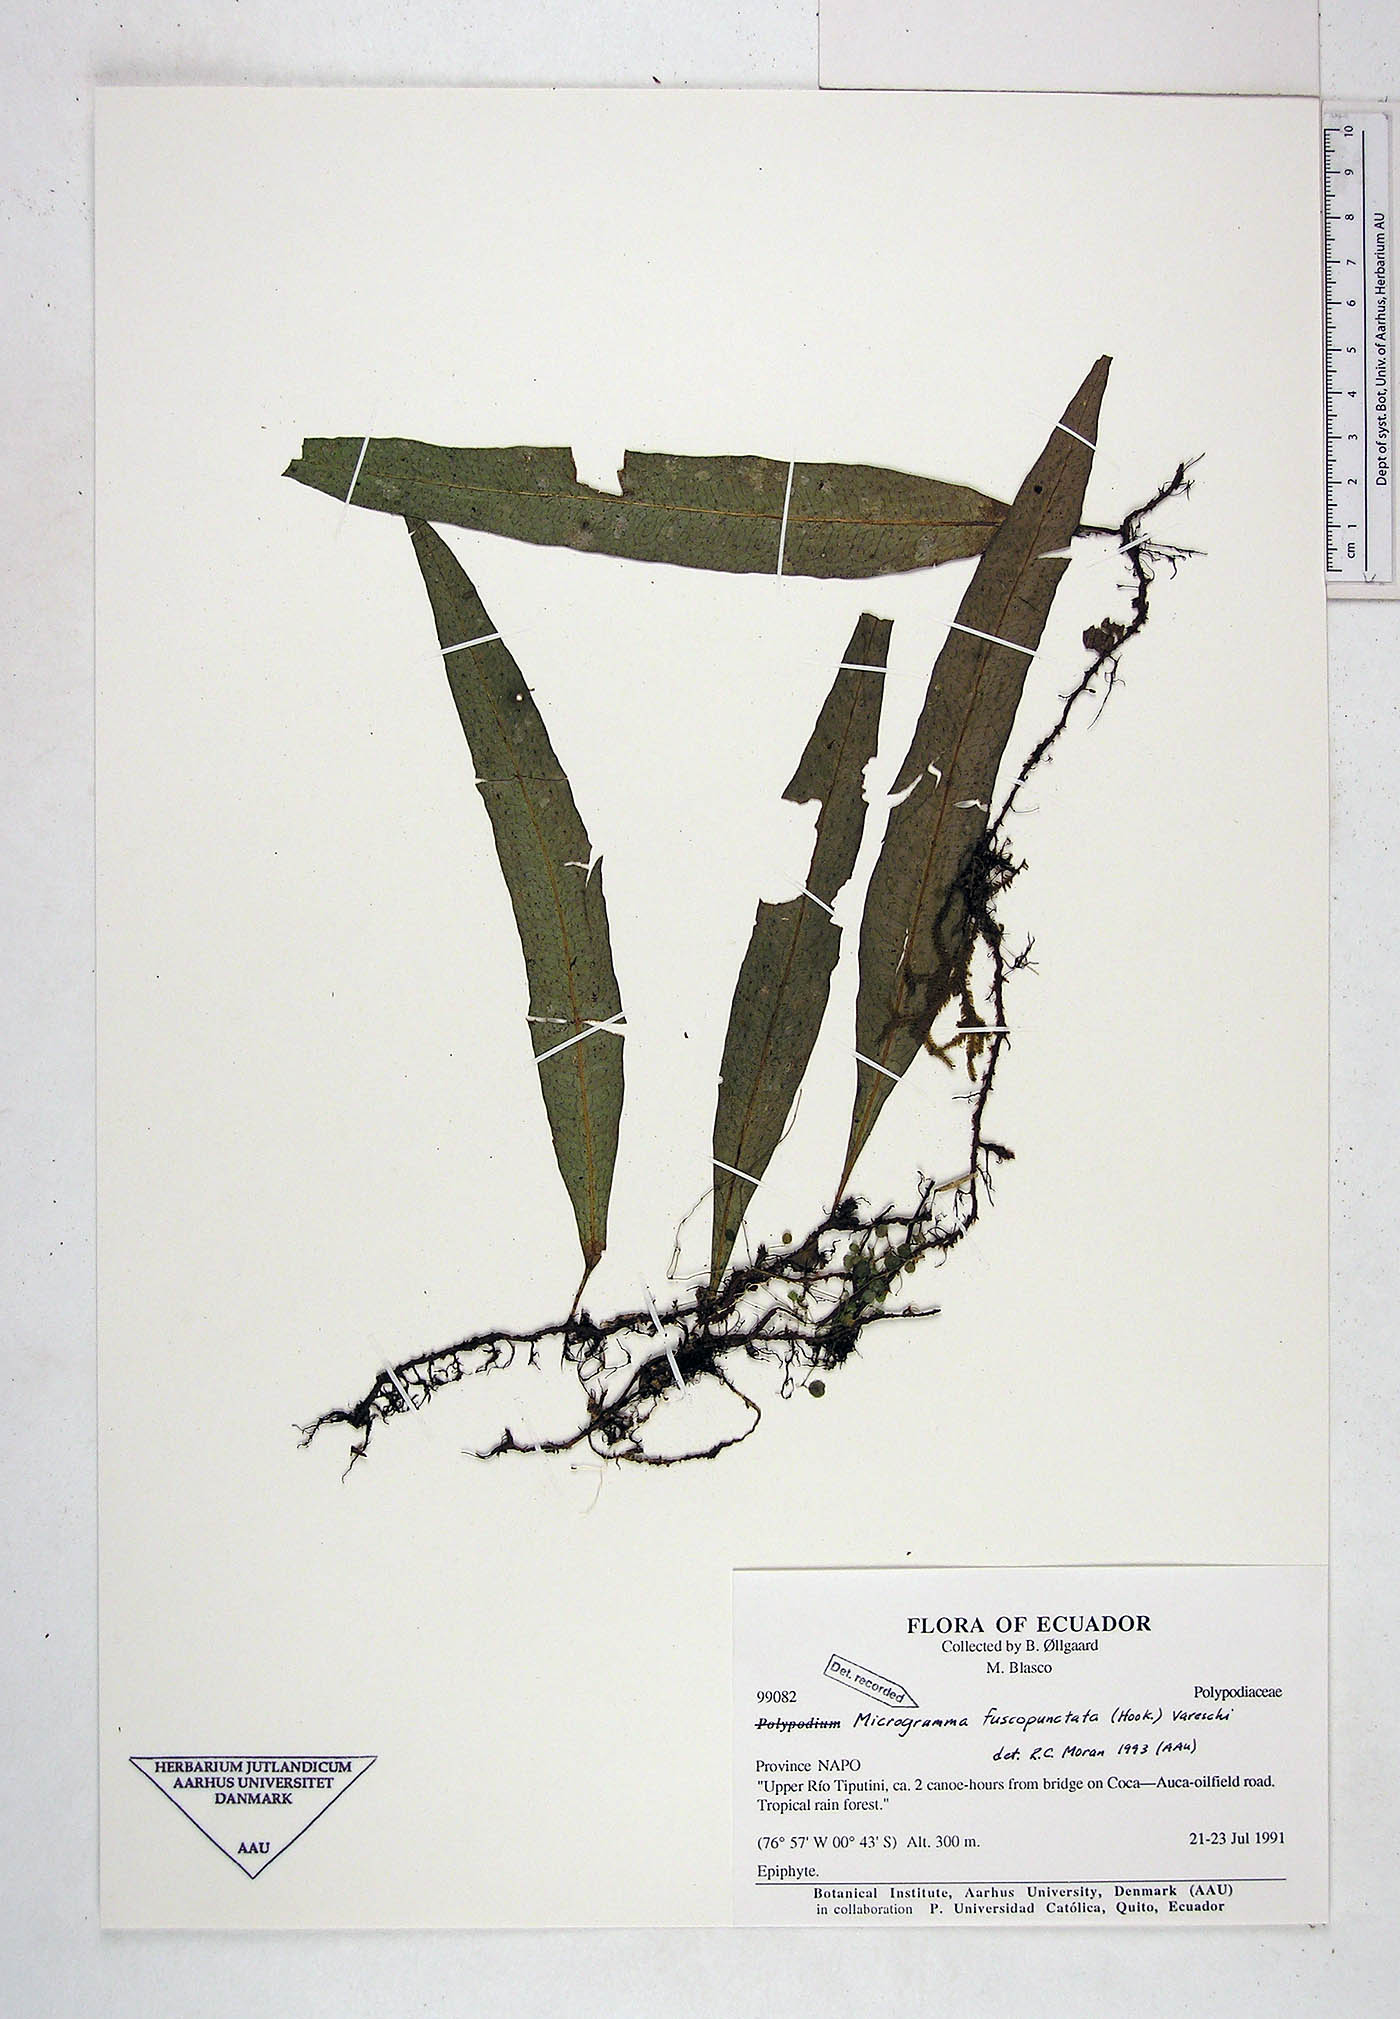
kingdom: Plantae
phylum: Tracheophyta
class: Polypodiopsida
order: Polypodiales
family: Polypodiaceae
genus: Microgramma
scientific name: Microgramma dictyophylla
